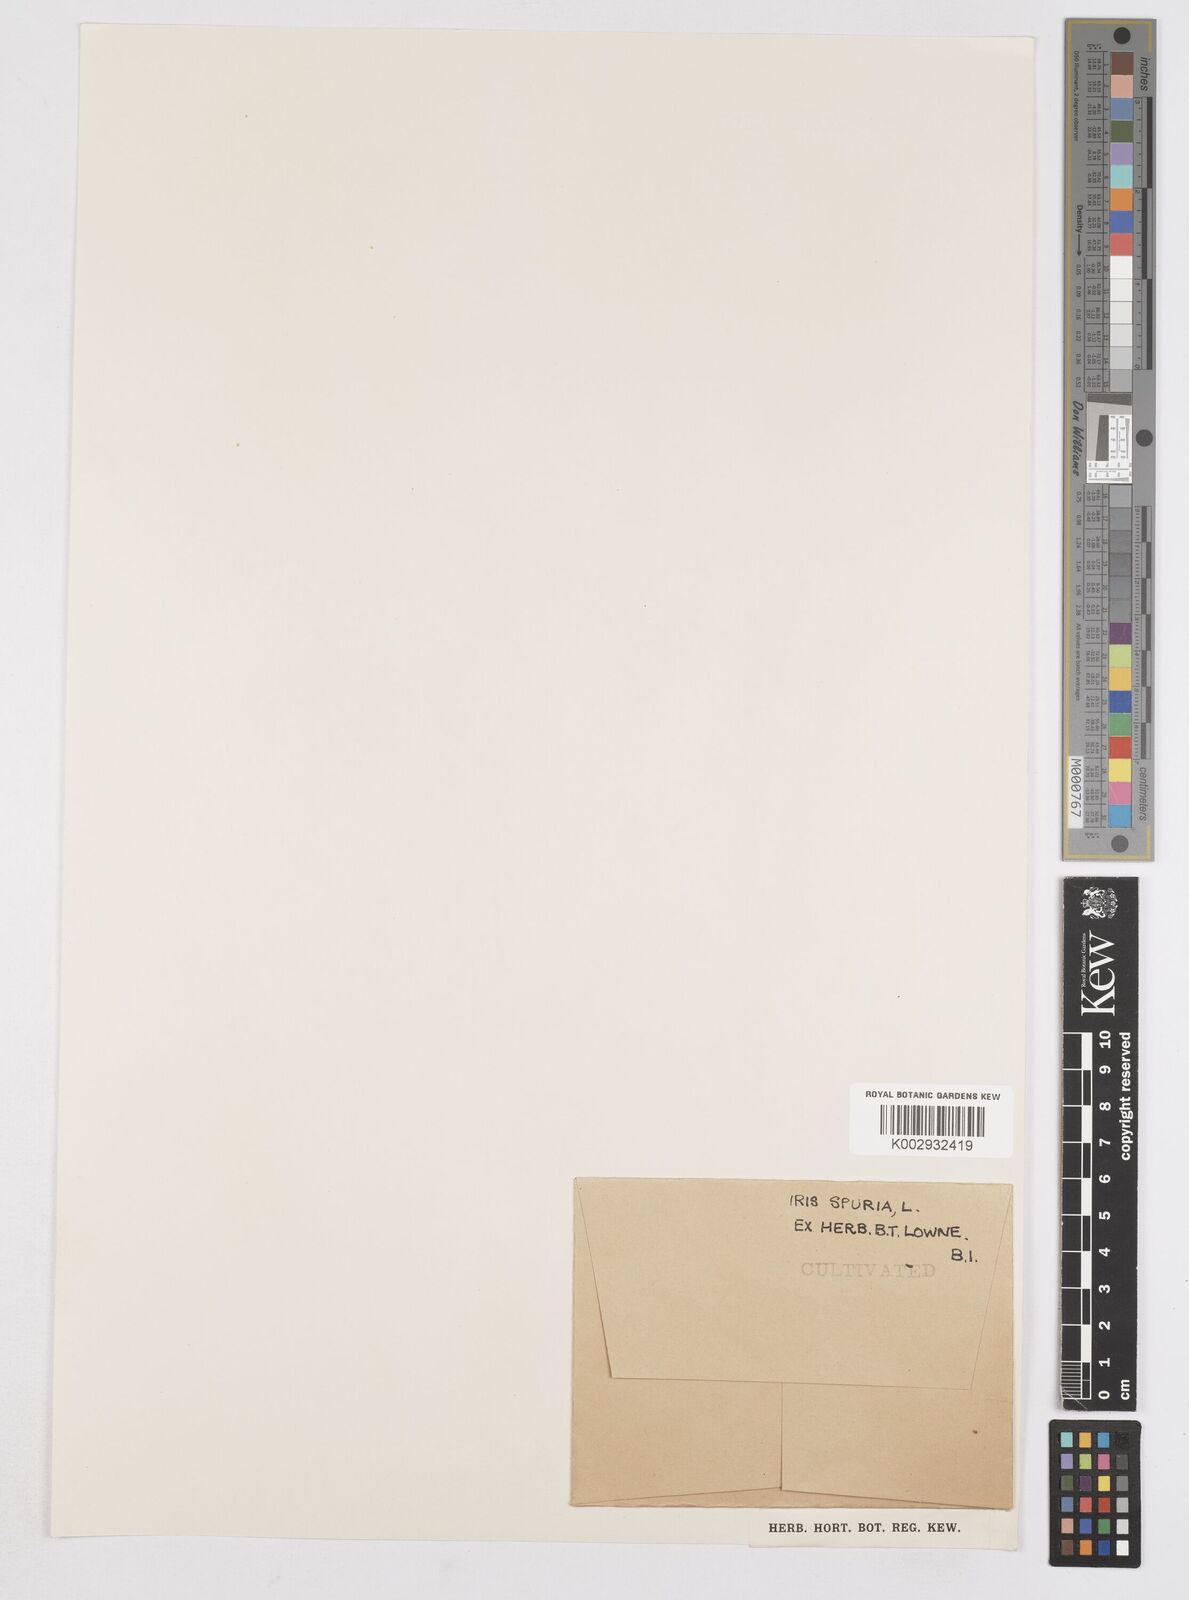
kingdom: Plantae
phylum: Tracheophyta
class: Liliopsida
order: Asparagales
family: Iridaceae
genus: Iris
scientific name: Iris spuria
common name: Blue iris
